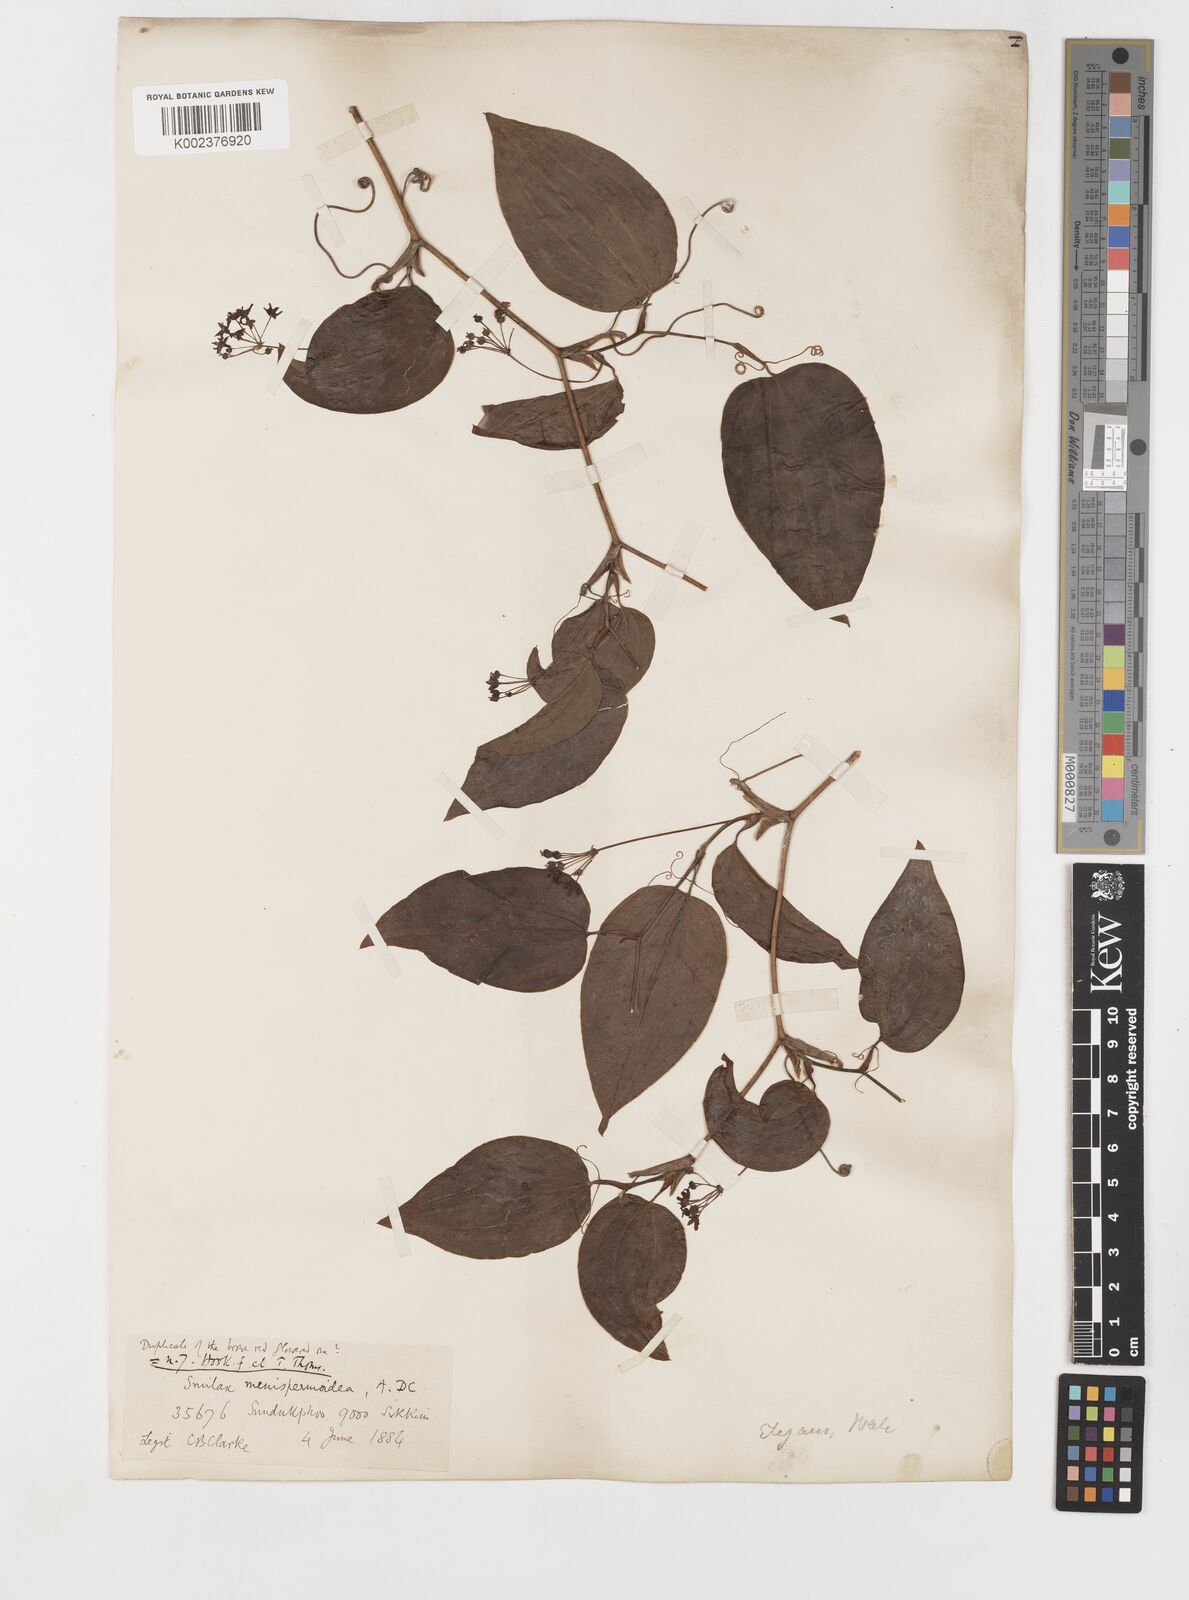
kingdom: Plantae
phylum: Tracheophyta
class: Liliopsida
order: Liliales
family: Smilacaceae
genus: Smilax
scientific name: Smilax menispermoidea
